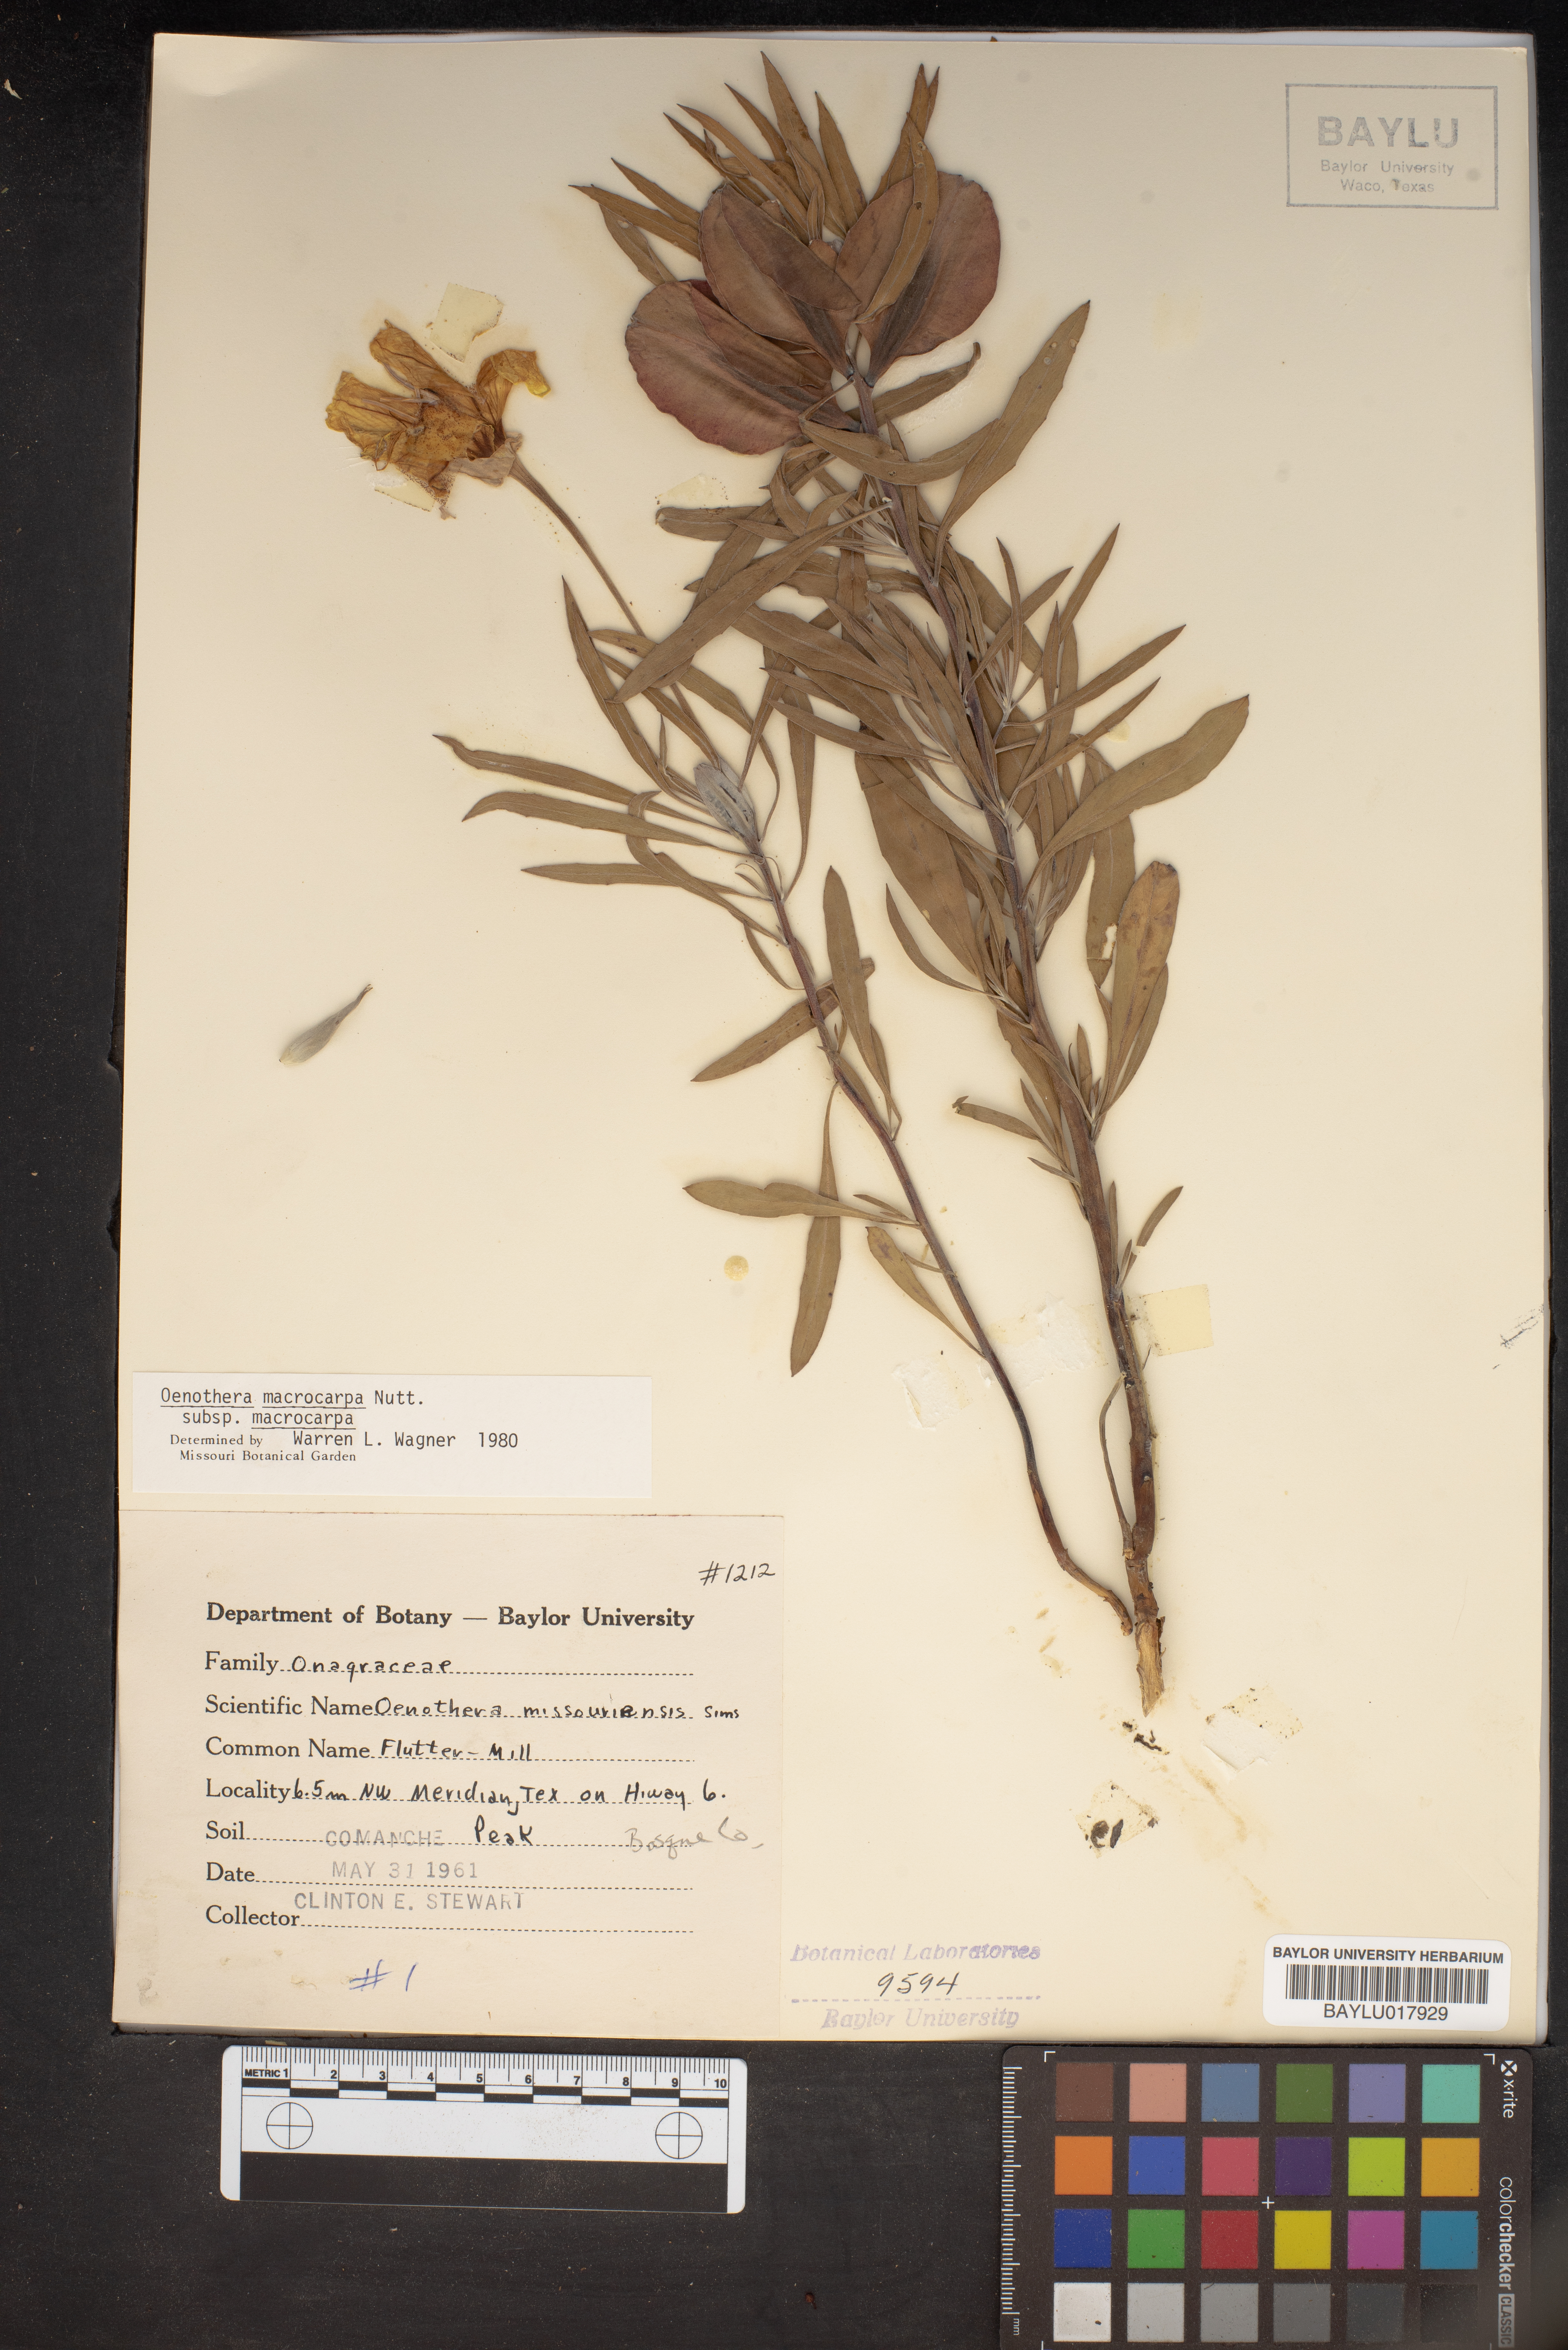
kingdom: Plantae
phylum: Tracheophyta
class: Magnoliopsida
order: Myrtales
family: Onagraceae
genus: Oenothera
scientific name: Oenothera macrocarpa
